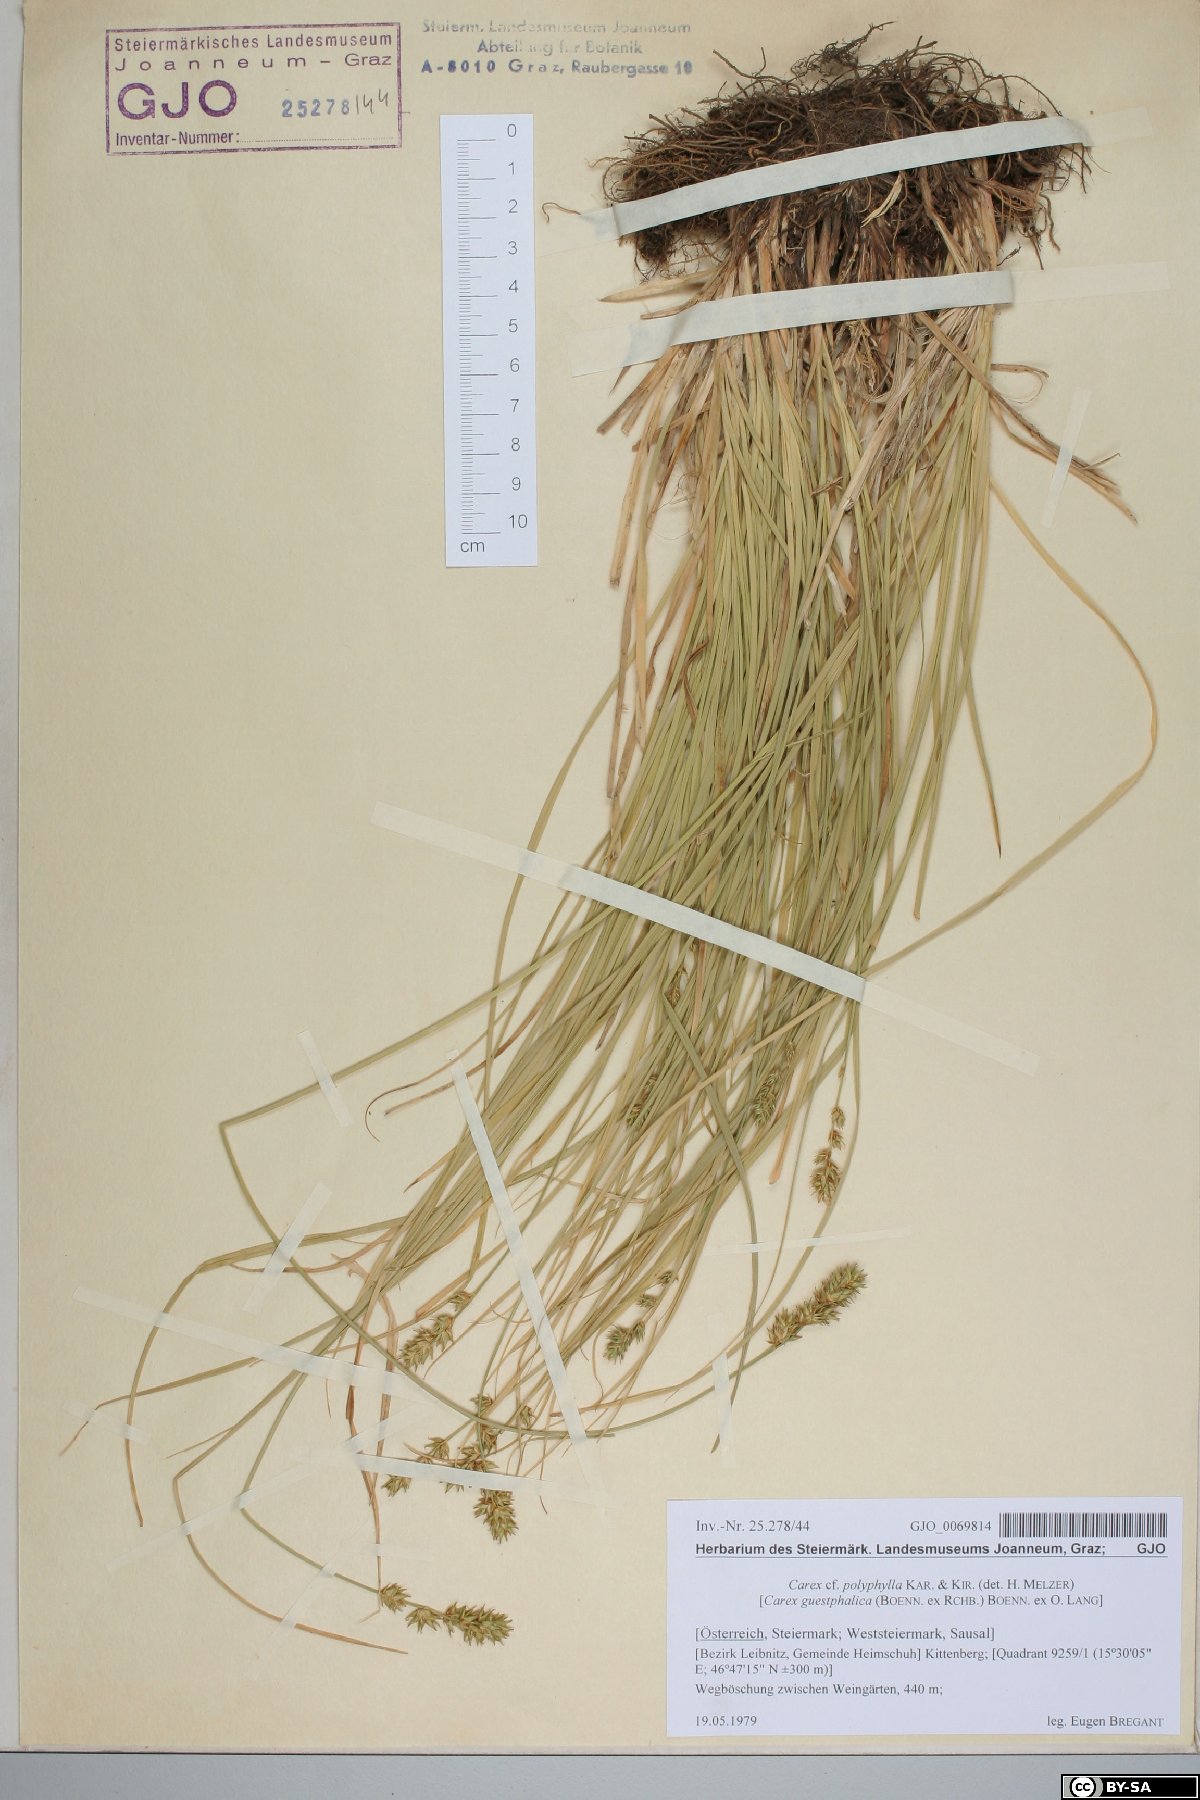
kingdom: Plantae
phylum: Tracheophyta
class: Liliopsida
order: Poales
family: Cyperaceae
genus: Carex
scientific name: Carex polyphylla
